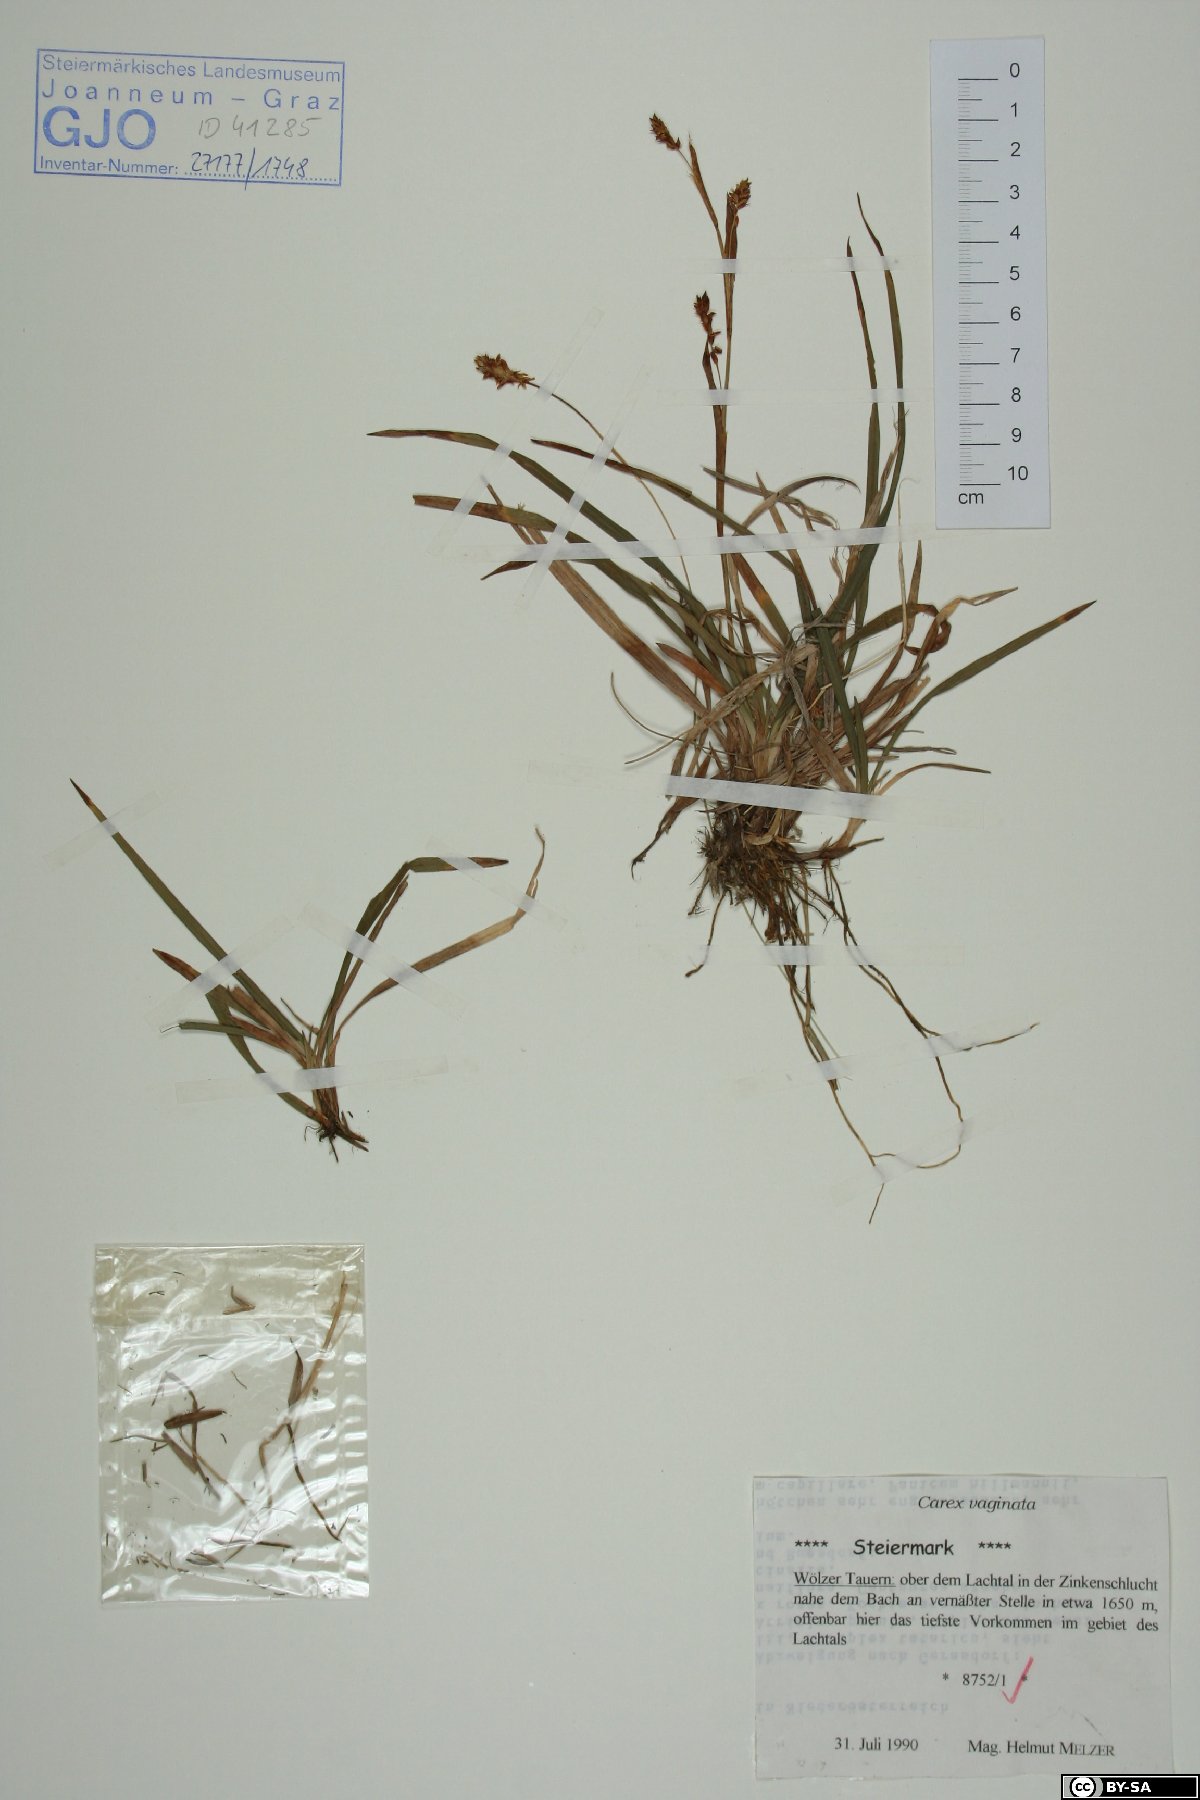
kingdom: Plantae
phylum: Tracheophyta
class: Liliopsida
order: Poales
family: Cyperaceae
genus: Carex
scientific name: Carex vaginata
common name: Sheathed sedge
